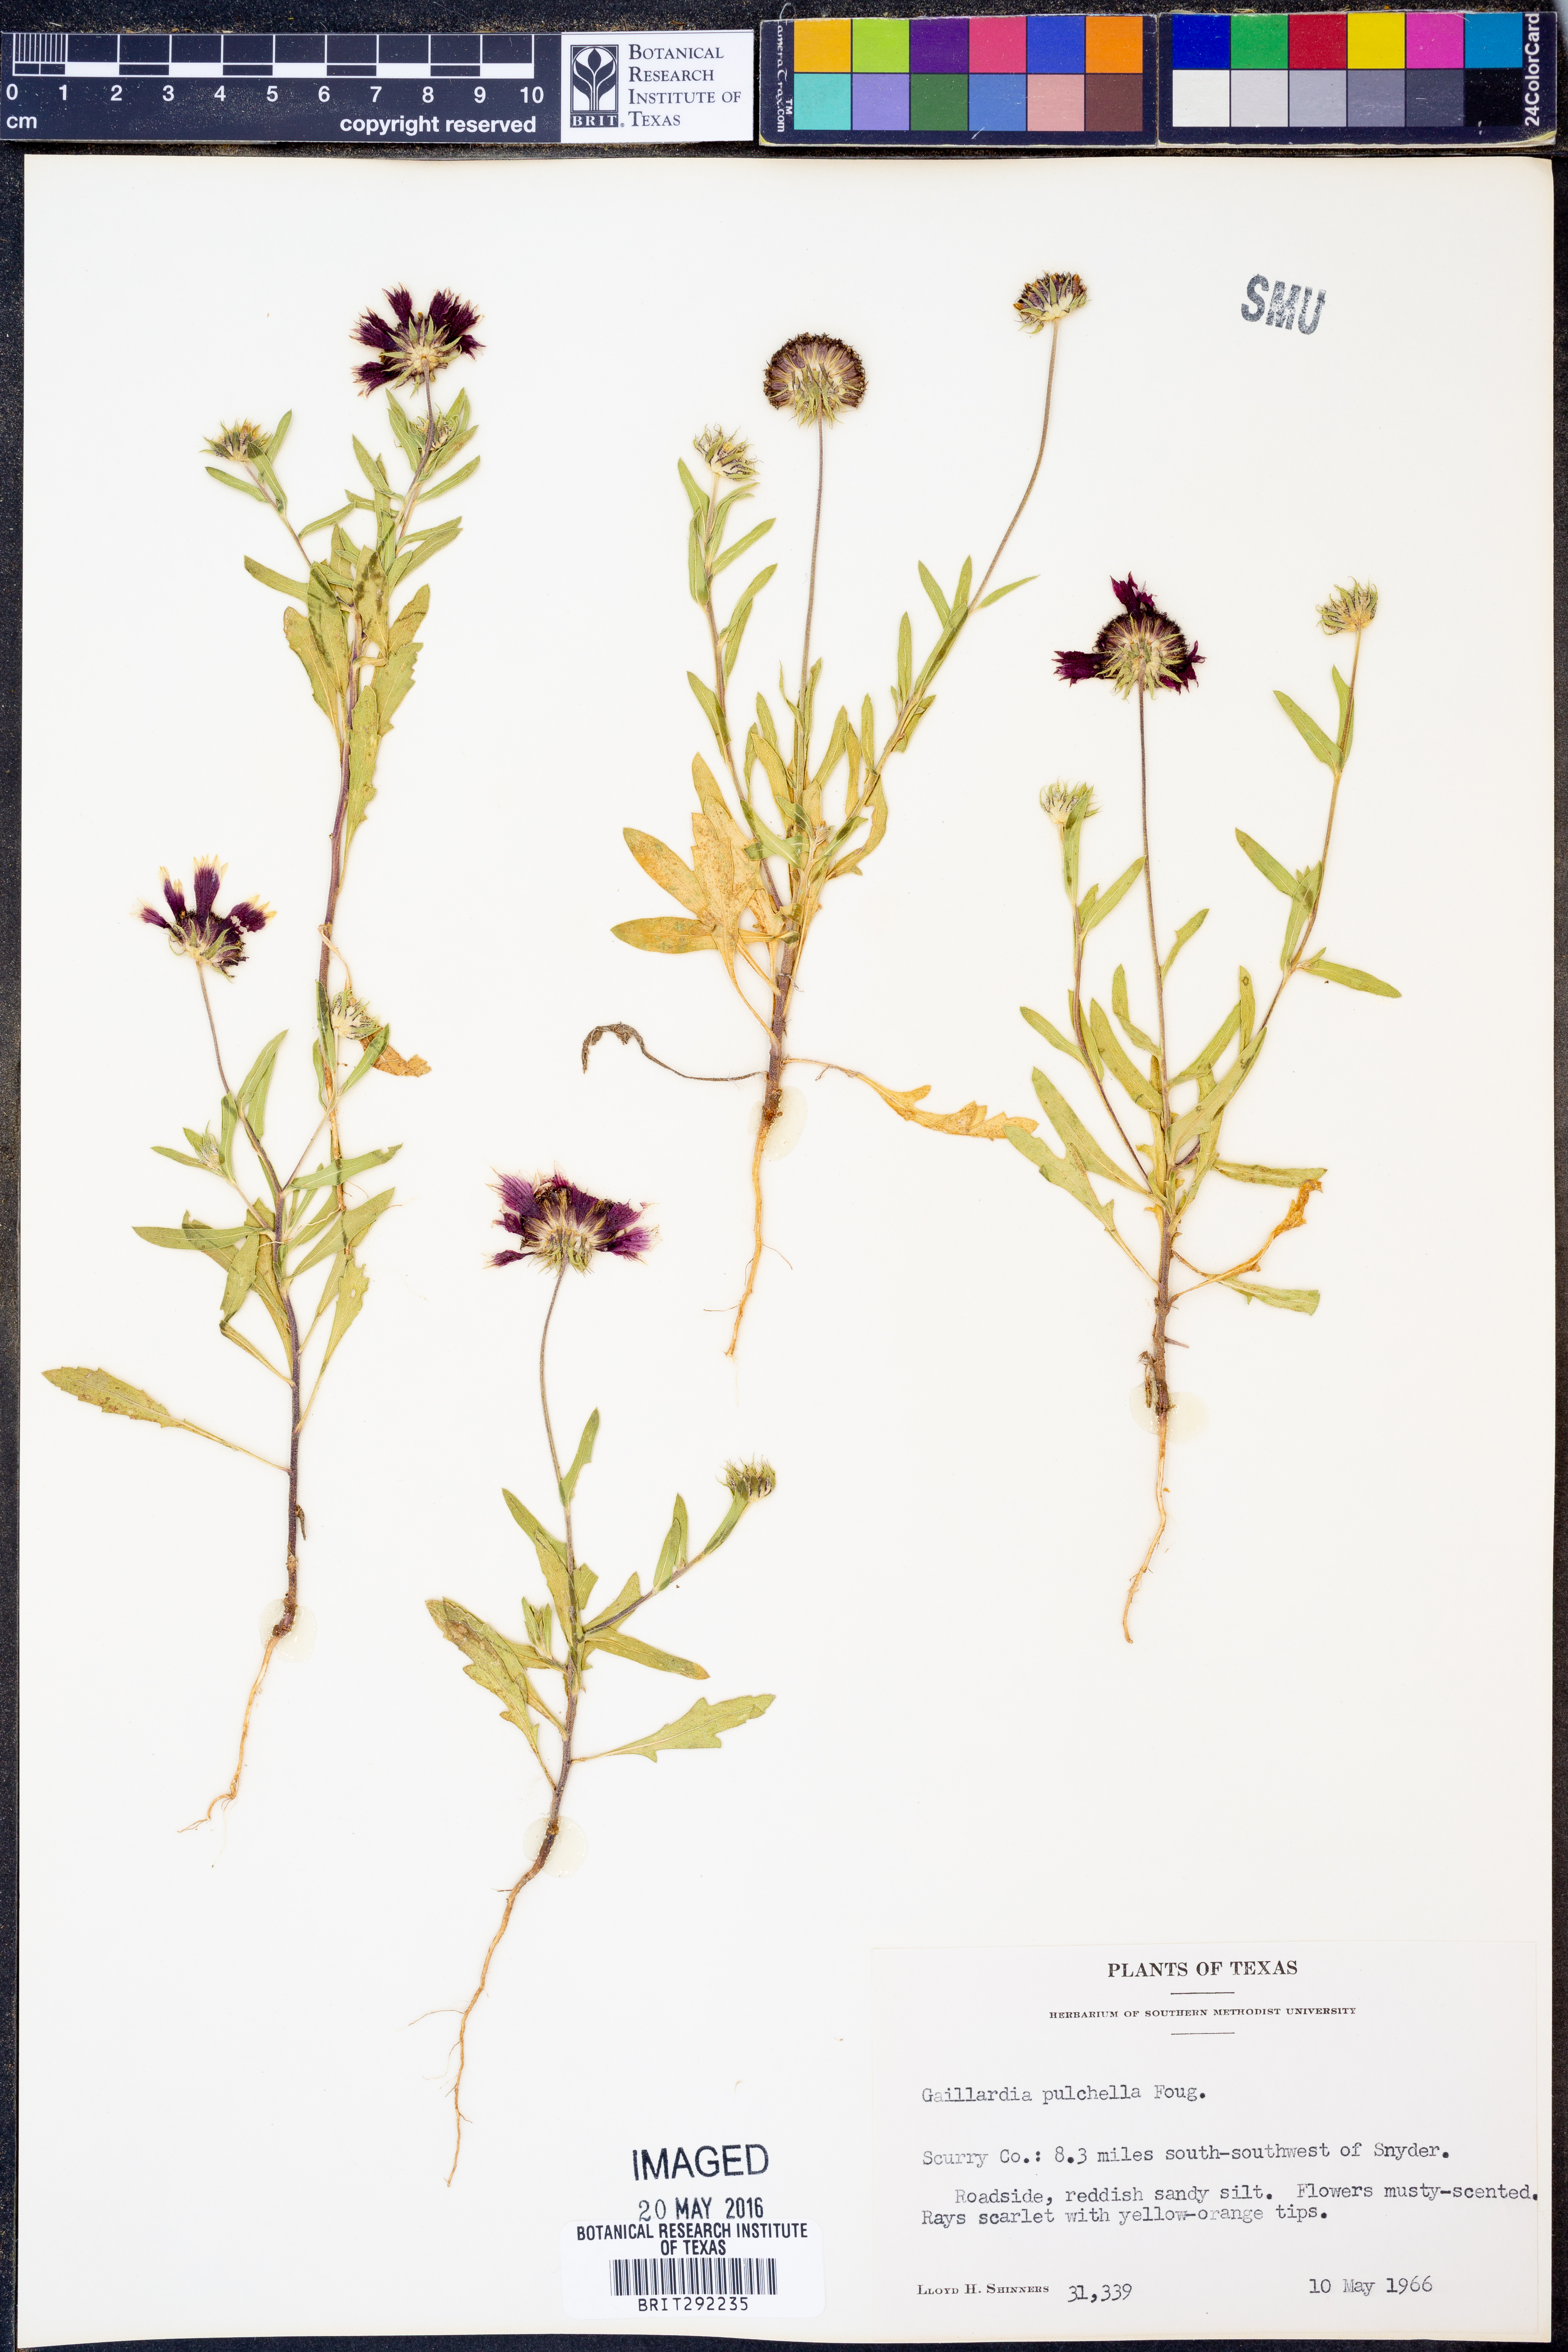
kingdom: Plantae
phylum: Tracheophyta
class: Magnoliopsida
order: Asterales
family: Asteraceae
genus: Gaillardia
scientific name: Gaillardia pulchella
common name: Firewheel
